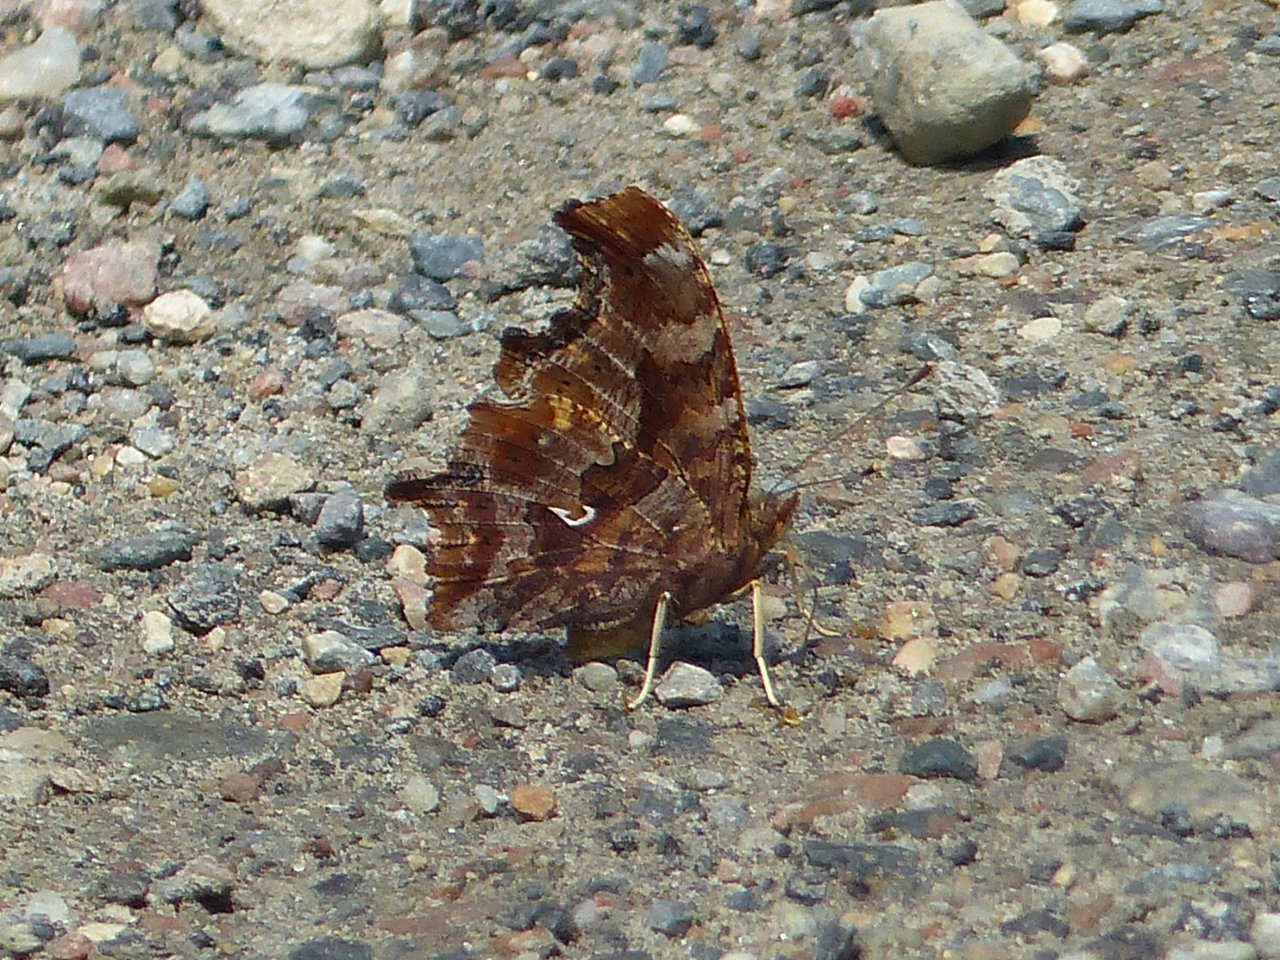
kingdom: Animalia
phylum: Arthropoda
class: Insecta
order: Lepidoptera
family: Nymphalidae
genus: Polygonia
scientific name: Polygonia comma
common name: Eastern Comma
